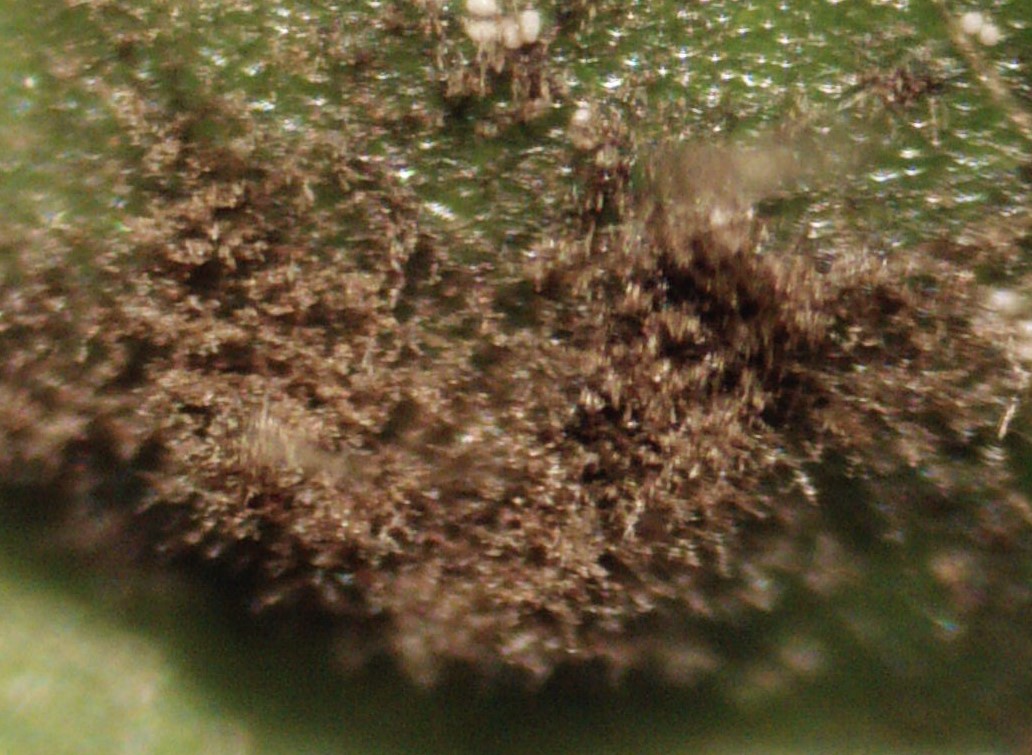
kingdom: Fungi
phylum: Ascomycota
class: Dothideomycetes
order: Capnodiales
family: Cladosporiaceae
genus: Cladosporium
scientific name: Cladosporium
